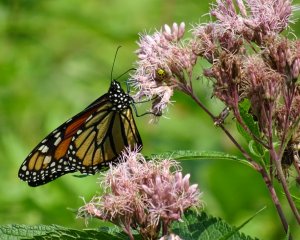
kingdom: Animalia
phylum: Arthropoda
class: Insecta
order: Lepidoptera
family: Nymphalidae
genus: Danaus
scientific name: Danaus plexippus
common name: Monarch
